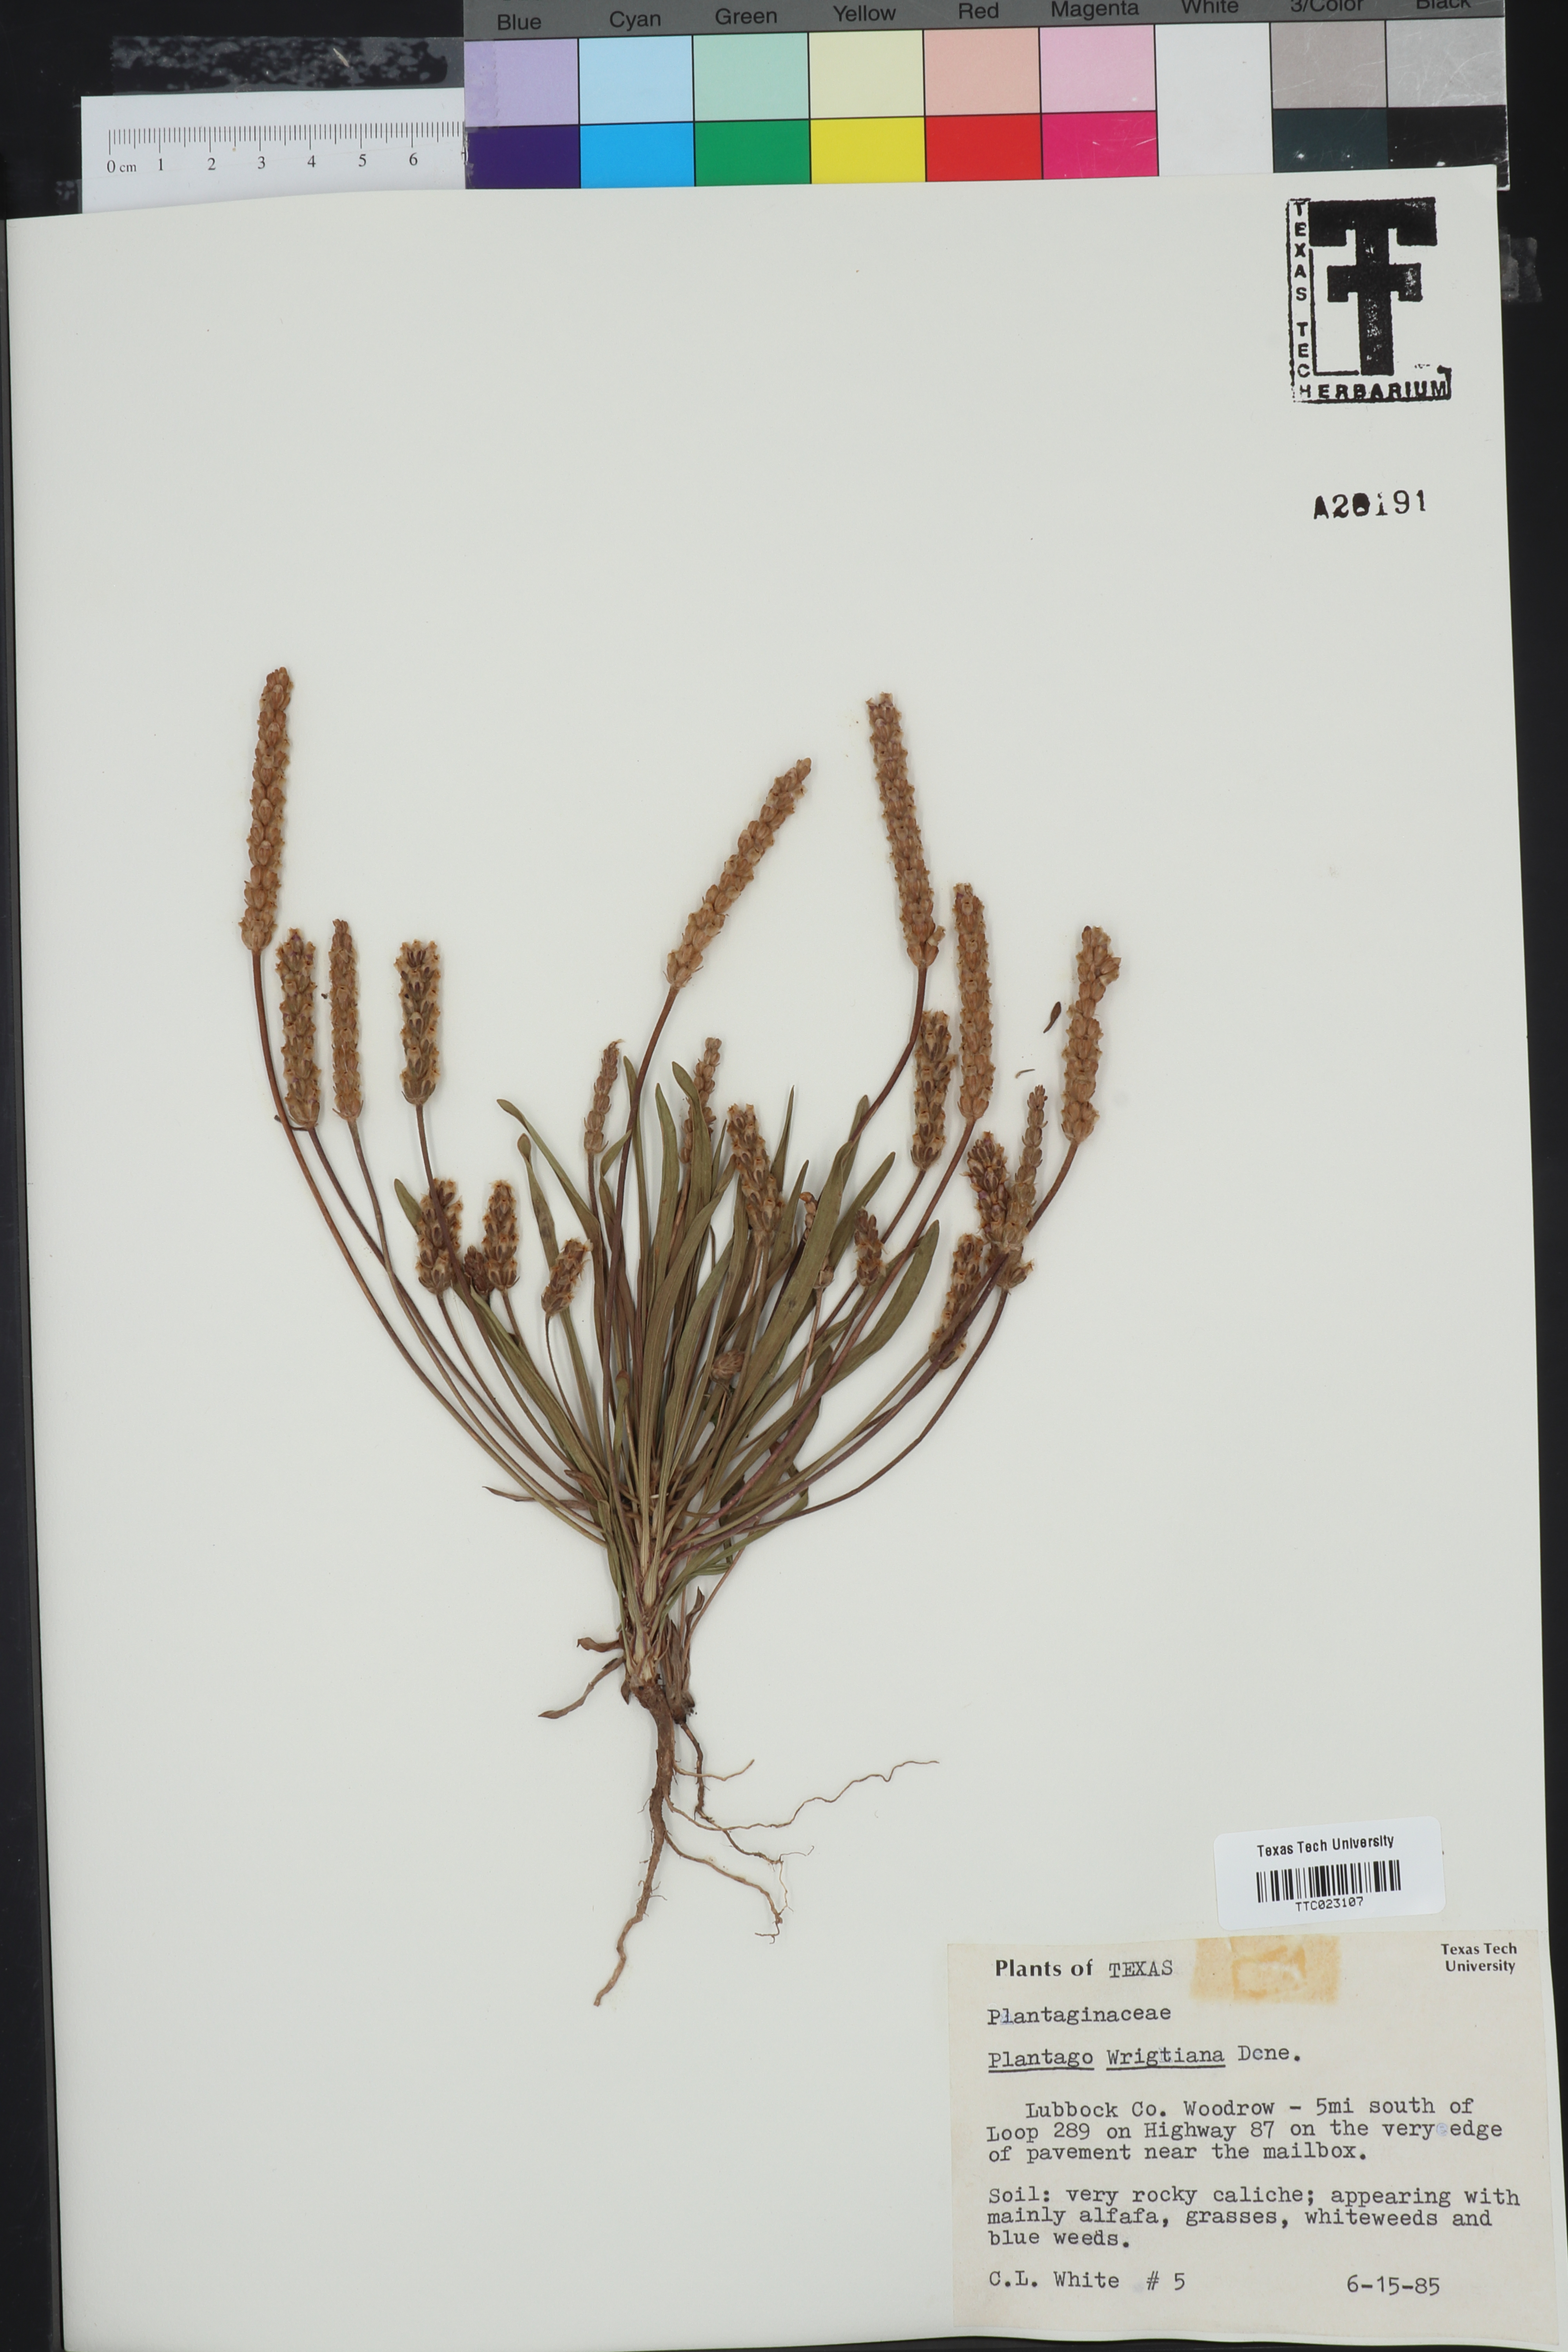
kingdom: Plantae
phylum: Tracheophyta
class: Magnoliopsida
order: Lamiales
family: Plantaginaceae
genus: Plantago
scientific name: Plantago wrightiana
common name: Wright's plantain
